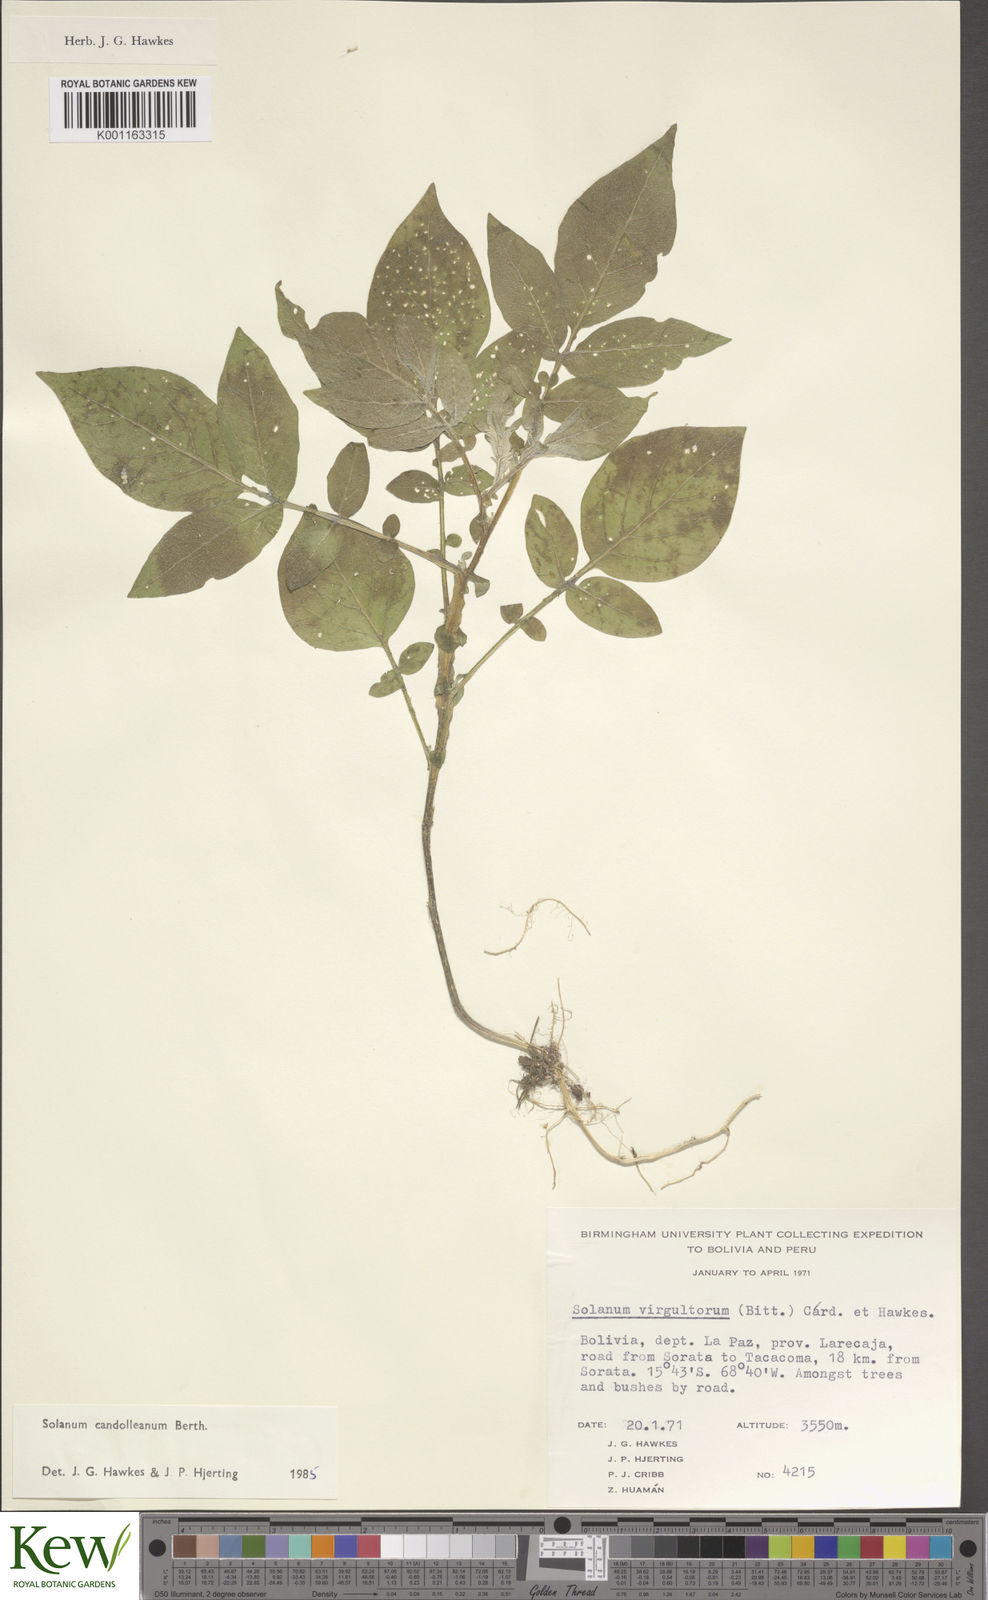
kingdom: Plantae
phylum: Tracheophyta
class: Magnoliopsida
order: Solanales
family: Solanaceae
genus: Solanum
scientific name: Solanum candolleanum
